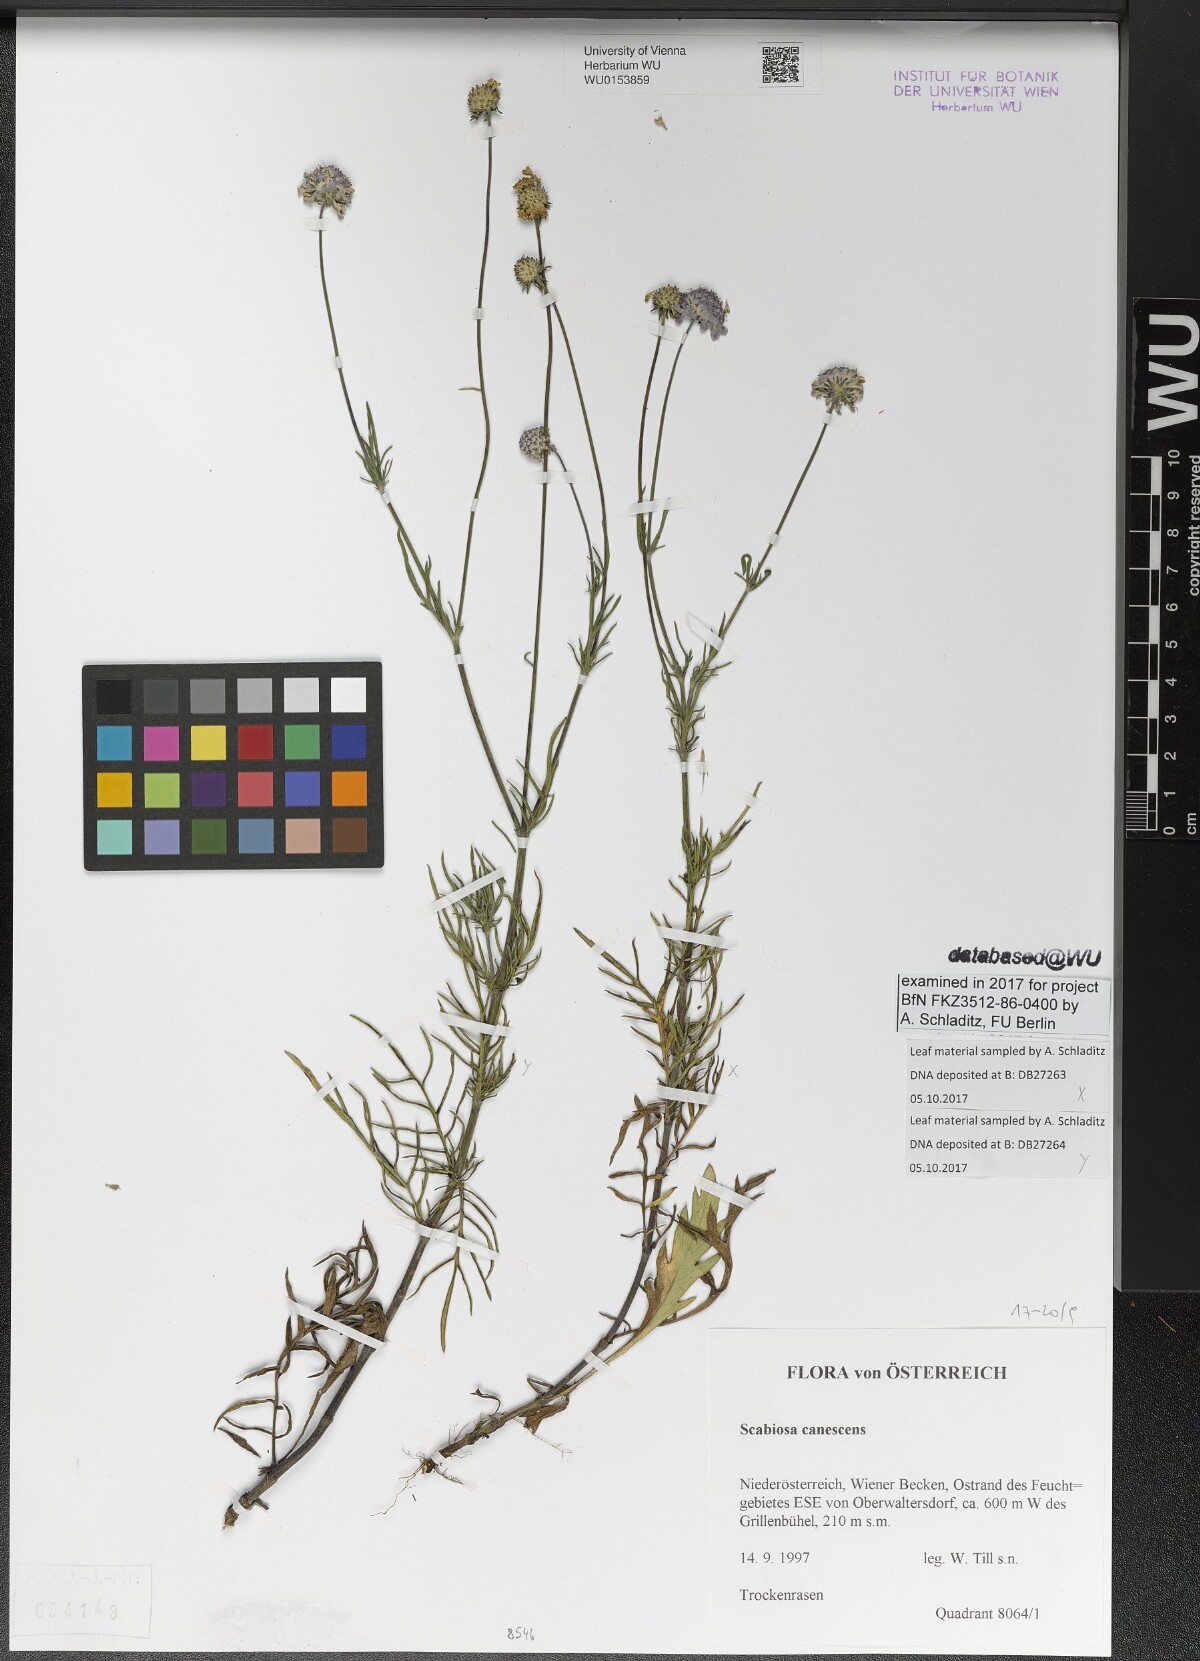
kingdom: Plantae
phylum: Tracheophyta
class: Magnoliopsida
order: Dipsacales
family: Caprifoliaceae
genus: Scabiosa
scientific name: Scabiosa canescens
